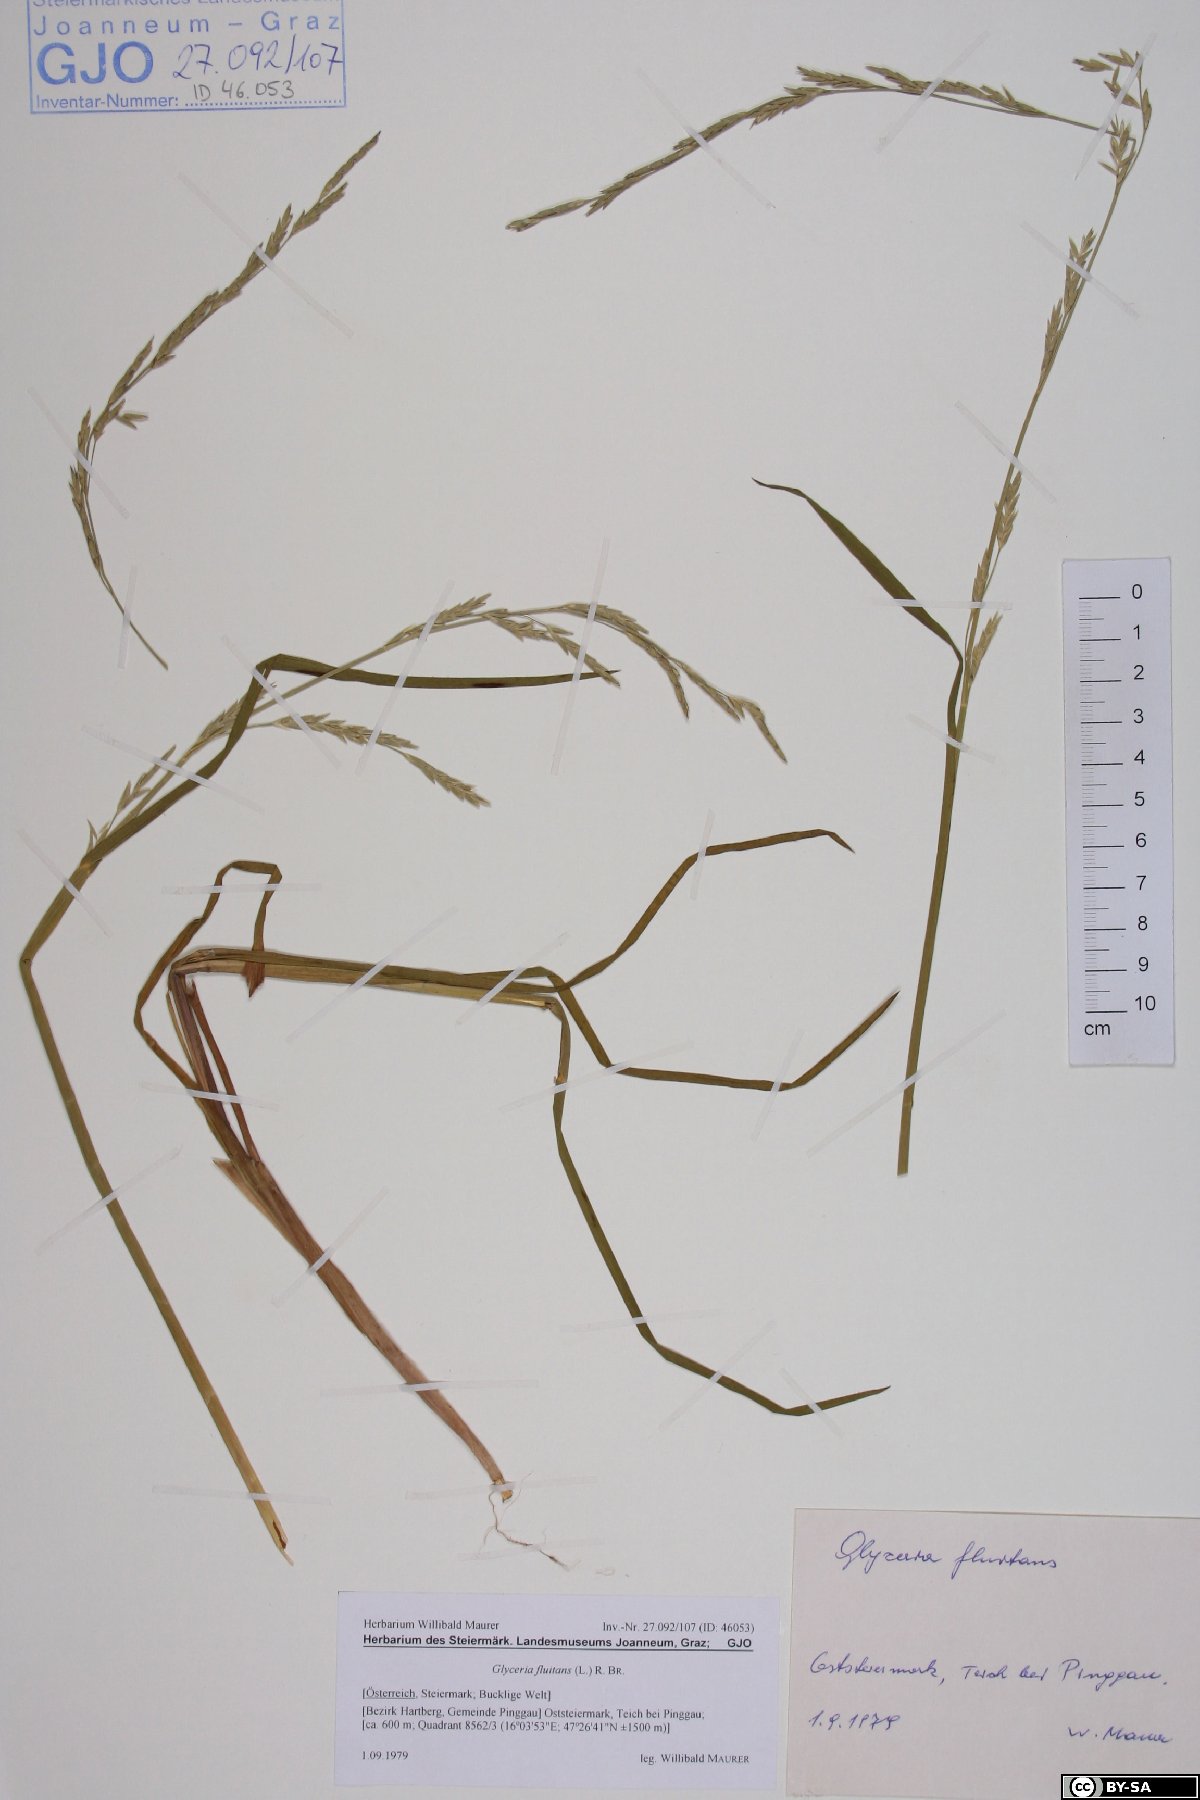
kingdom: Plantae
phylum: Tracheophyta
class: Liliopsida
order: Poales
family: Poaceae
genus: Glyceria
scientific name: Glyceria fluitans
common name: Floating sweet-grass
